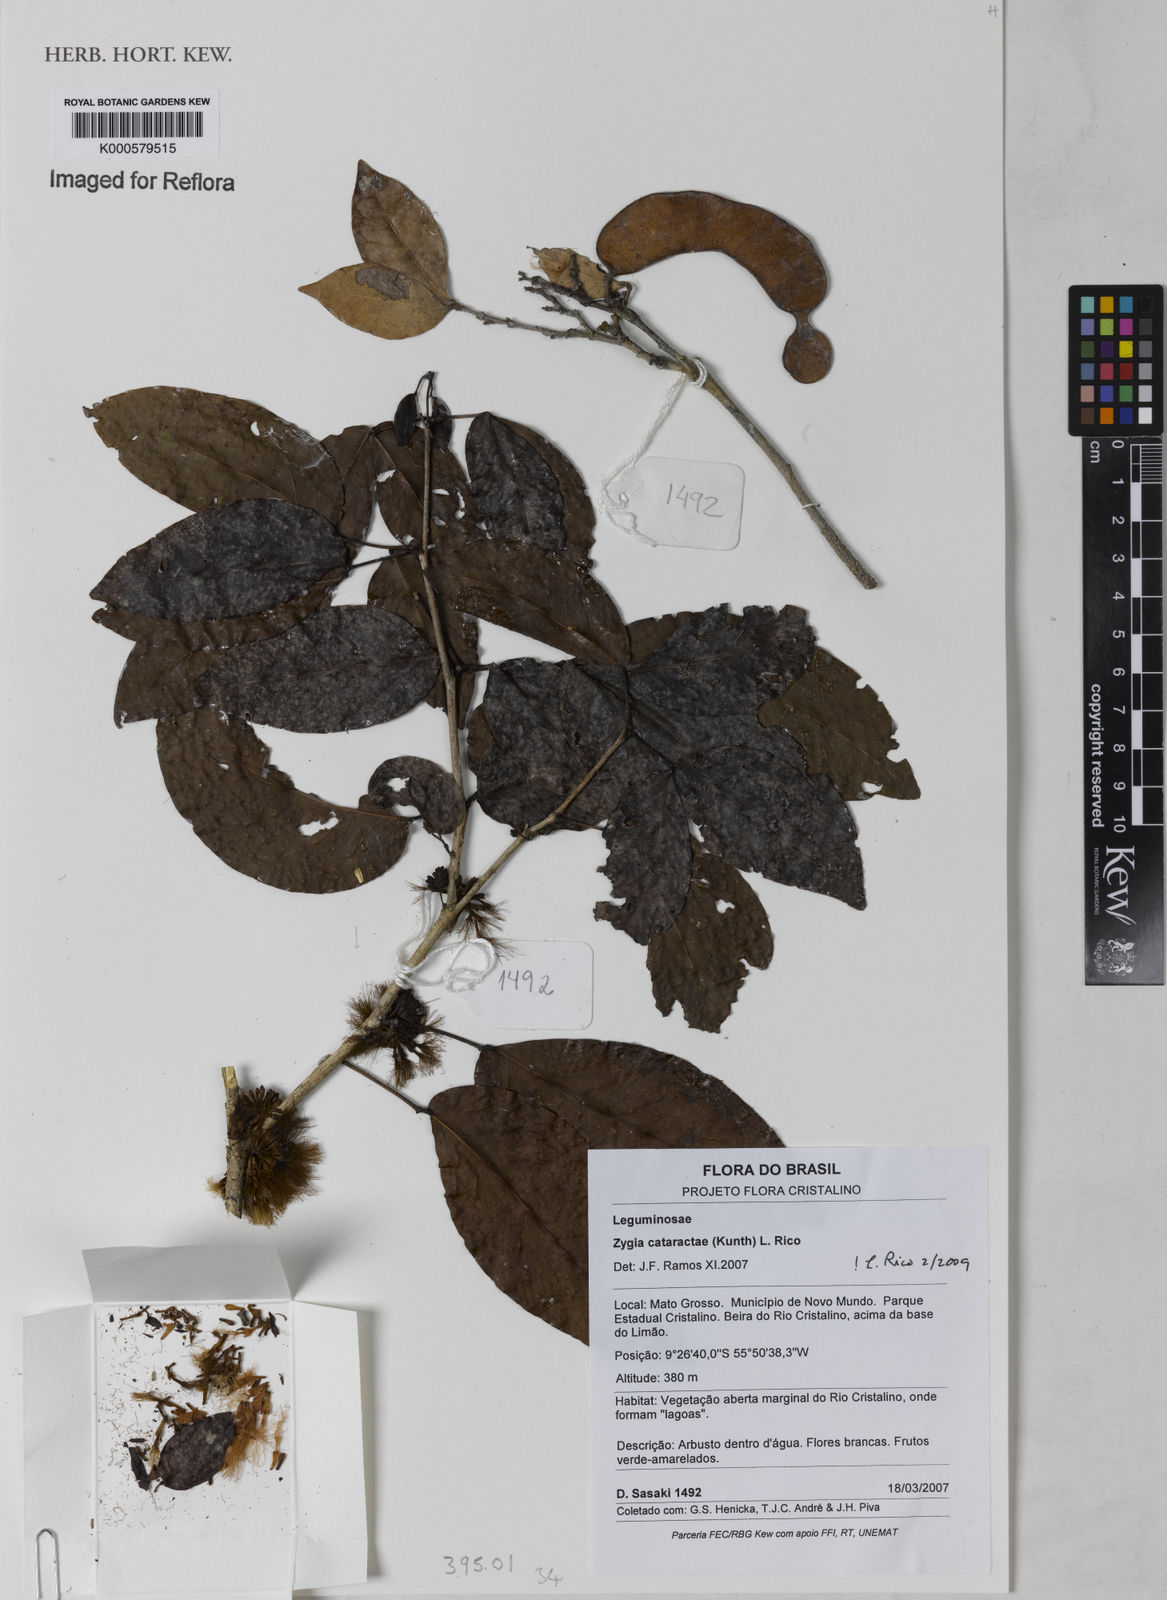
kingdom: Plantae
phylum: Tracheophyta
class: Magnoliopsida
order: Fabales
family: Fabaceae
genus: Zygia
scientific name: Zygia cataractae
